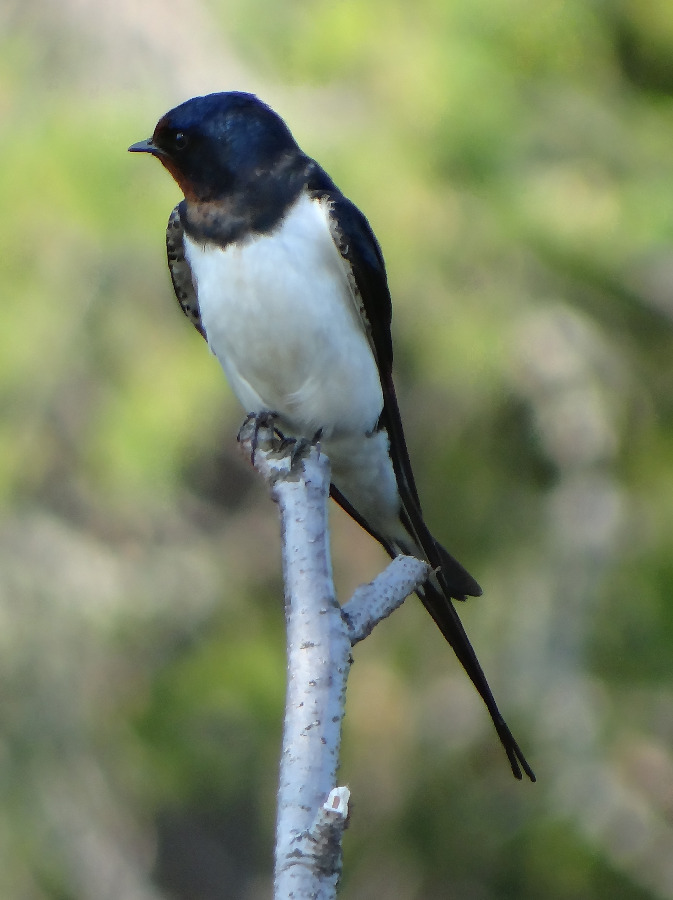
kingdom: Animalia
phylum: Chordata
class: Aves
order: Passeriformes
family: Hirundinidae
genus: Hirundo
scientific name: Hirundo rustica
